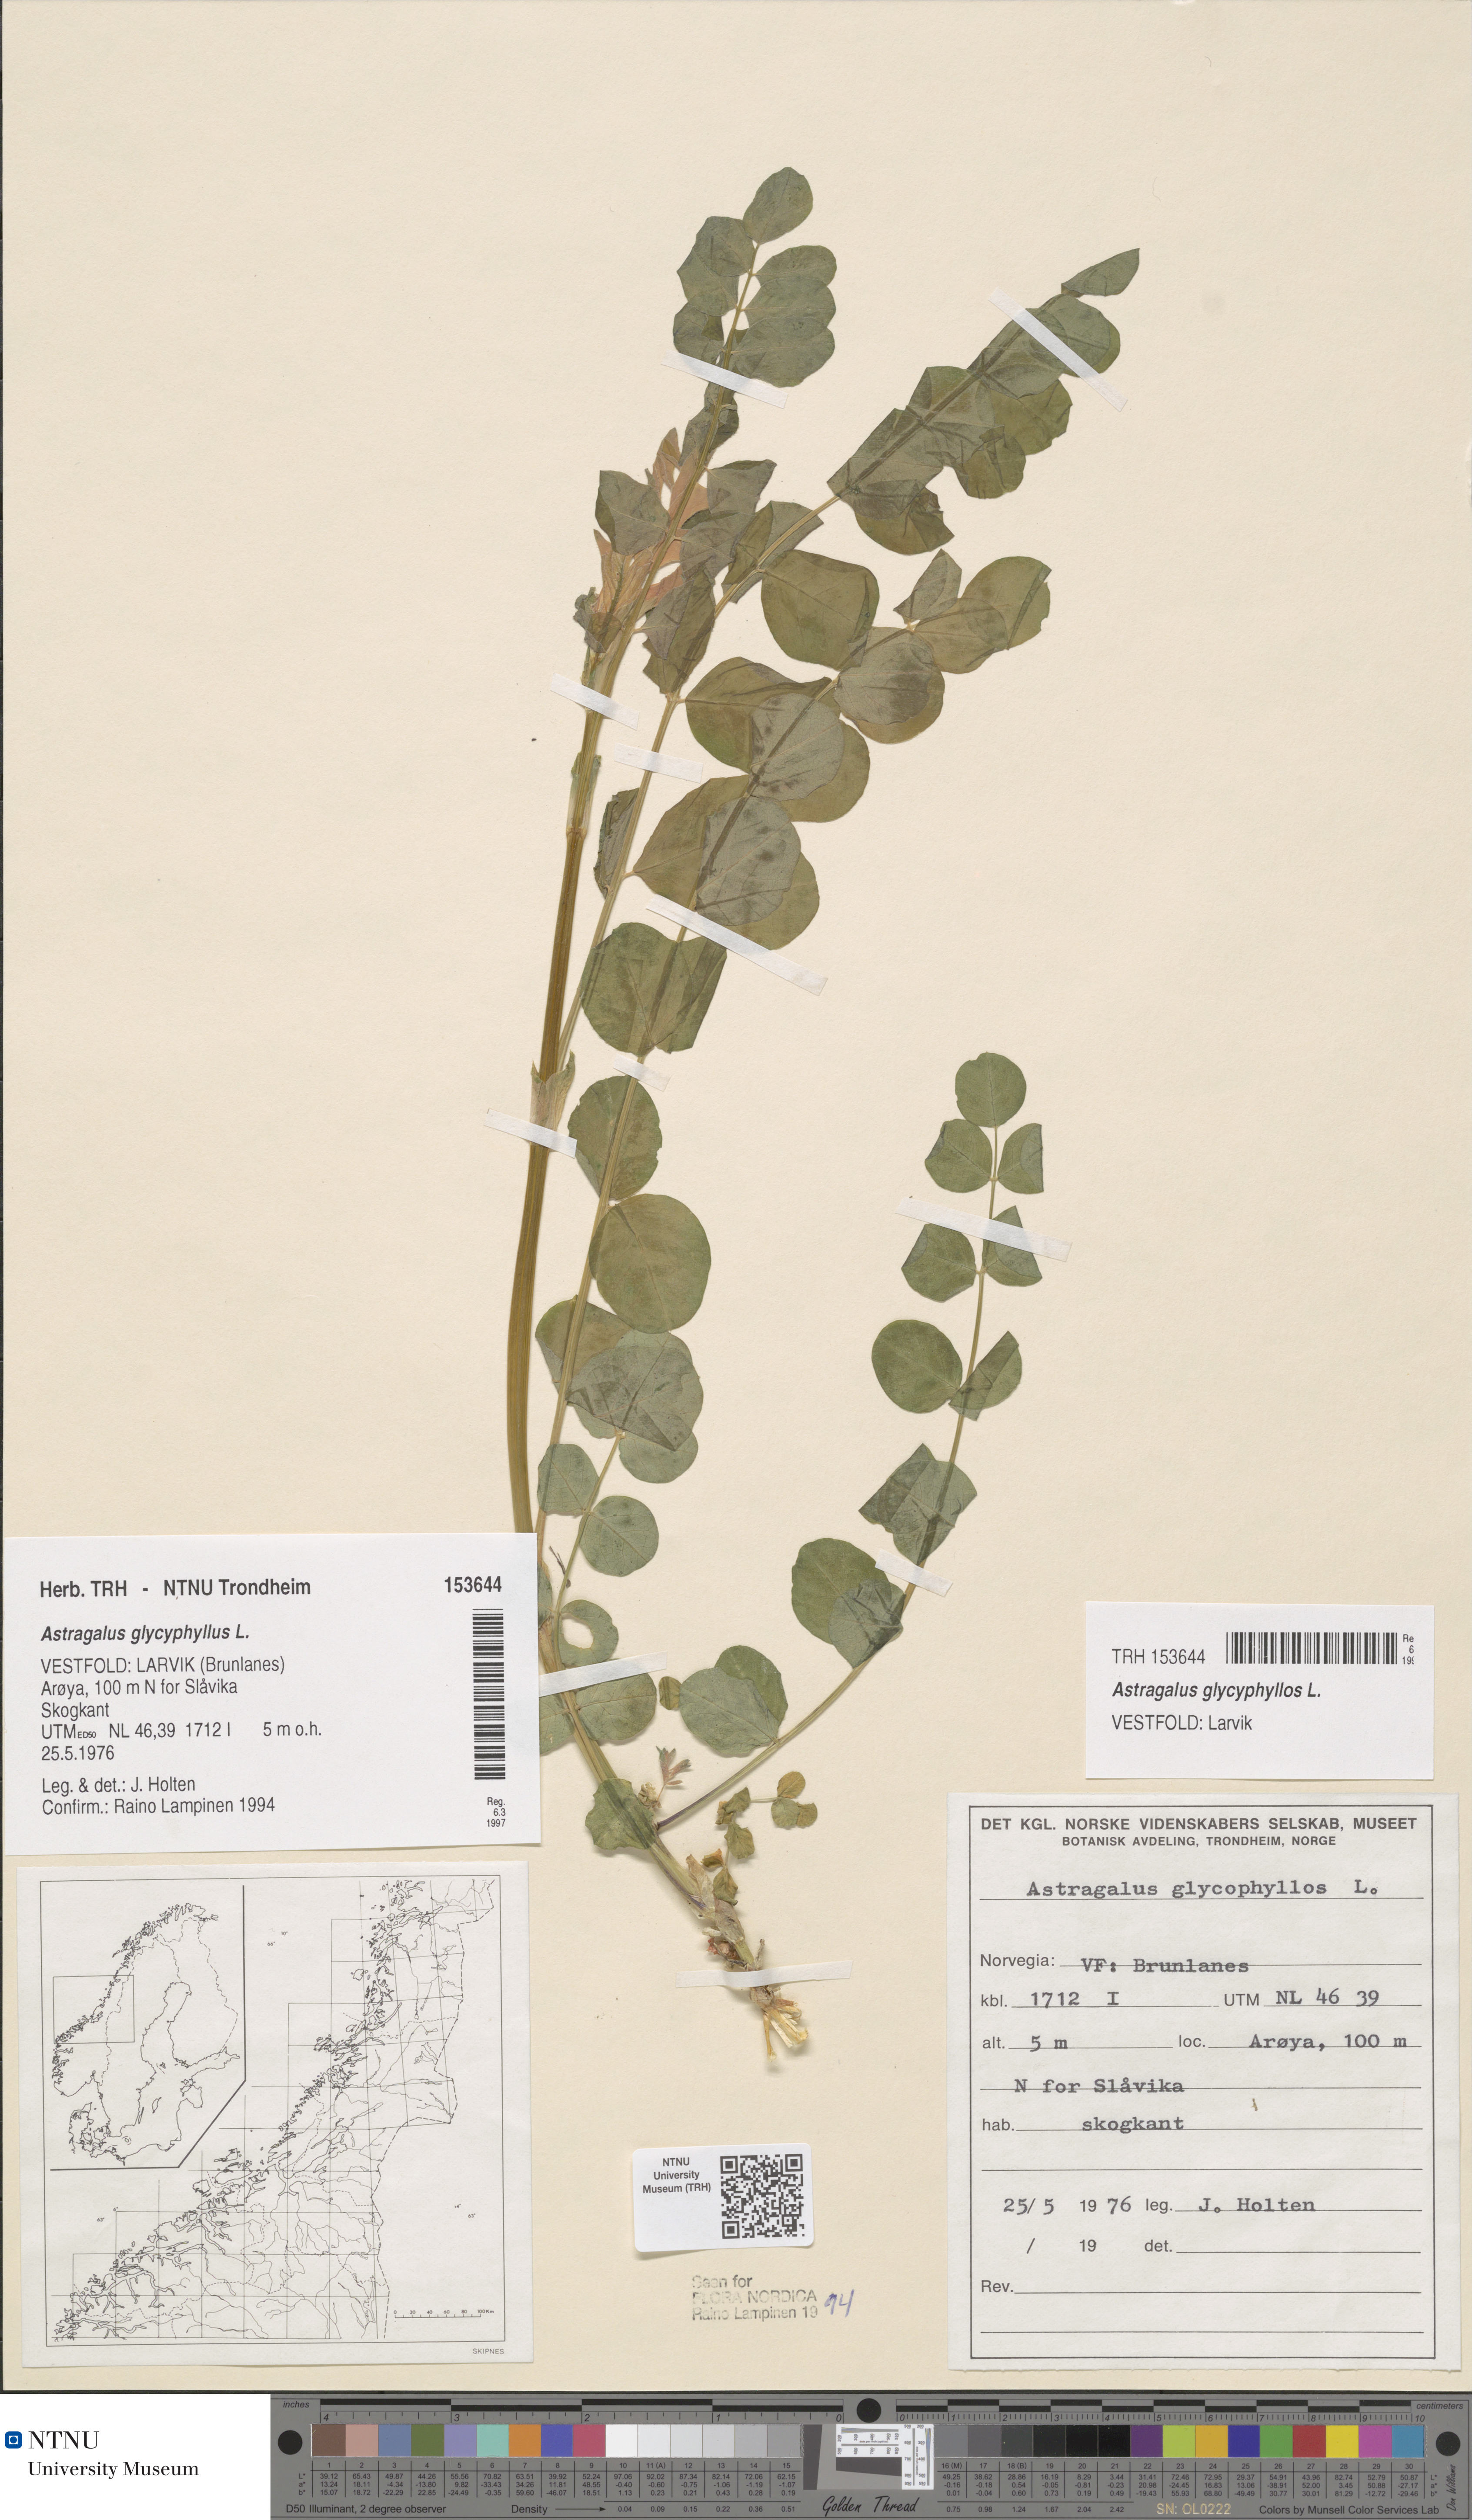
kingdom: Plantae
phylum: Tracheophyta
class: Magnoliopsida
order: Fabales
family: Fabaceae
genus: Astragalus
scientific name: Astragalus glycyphyllos
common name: Wild liquorice
